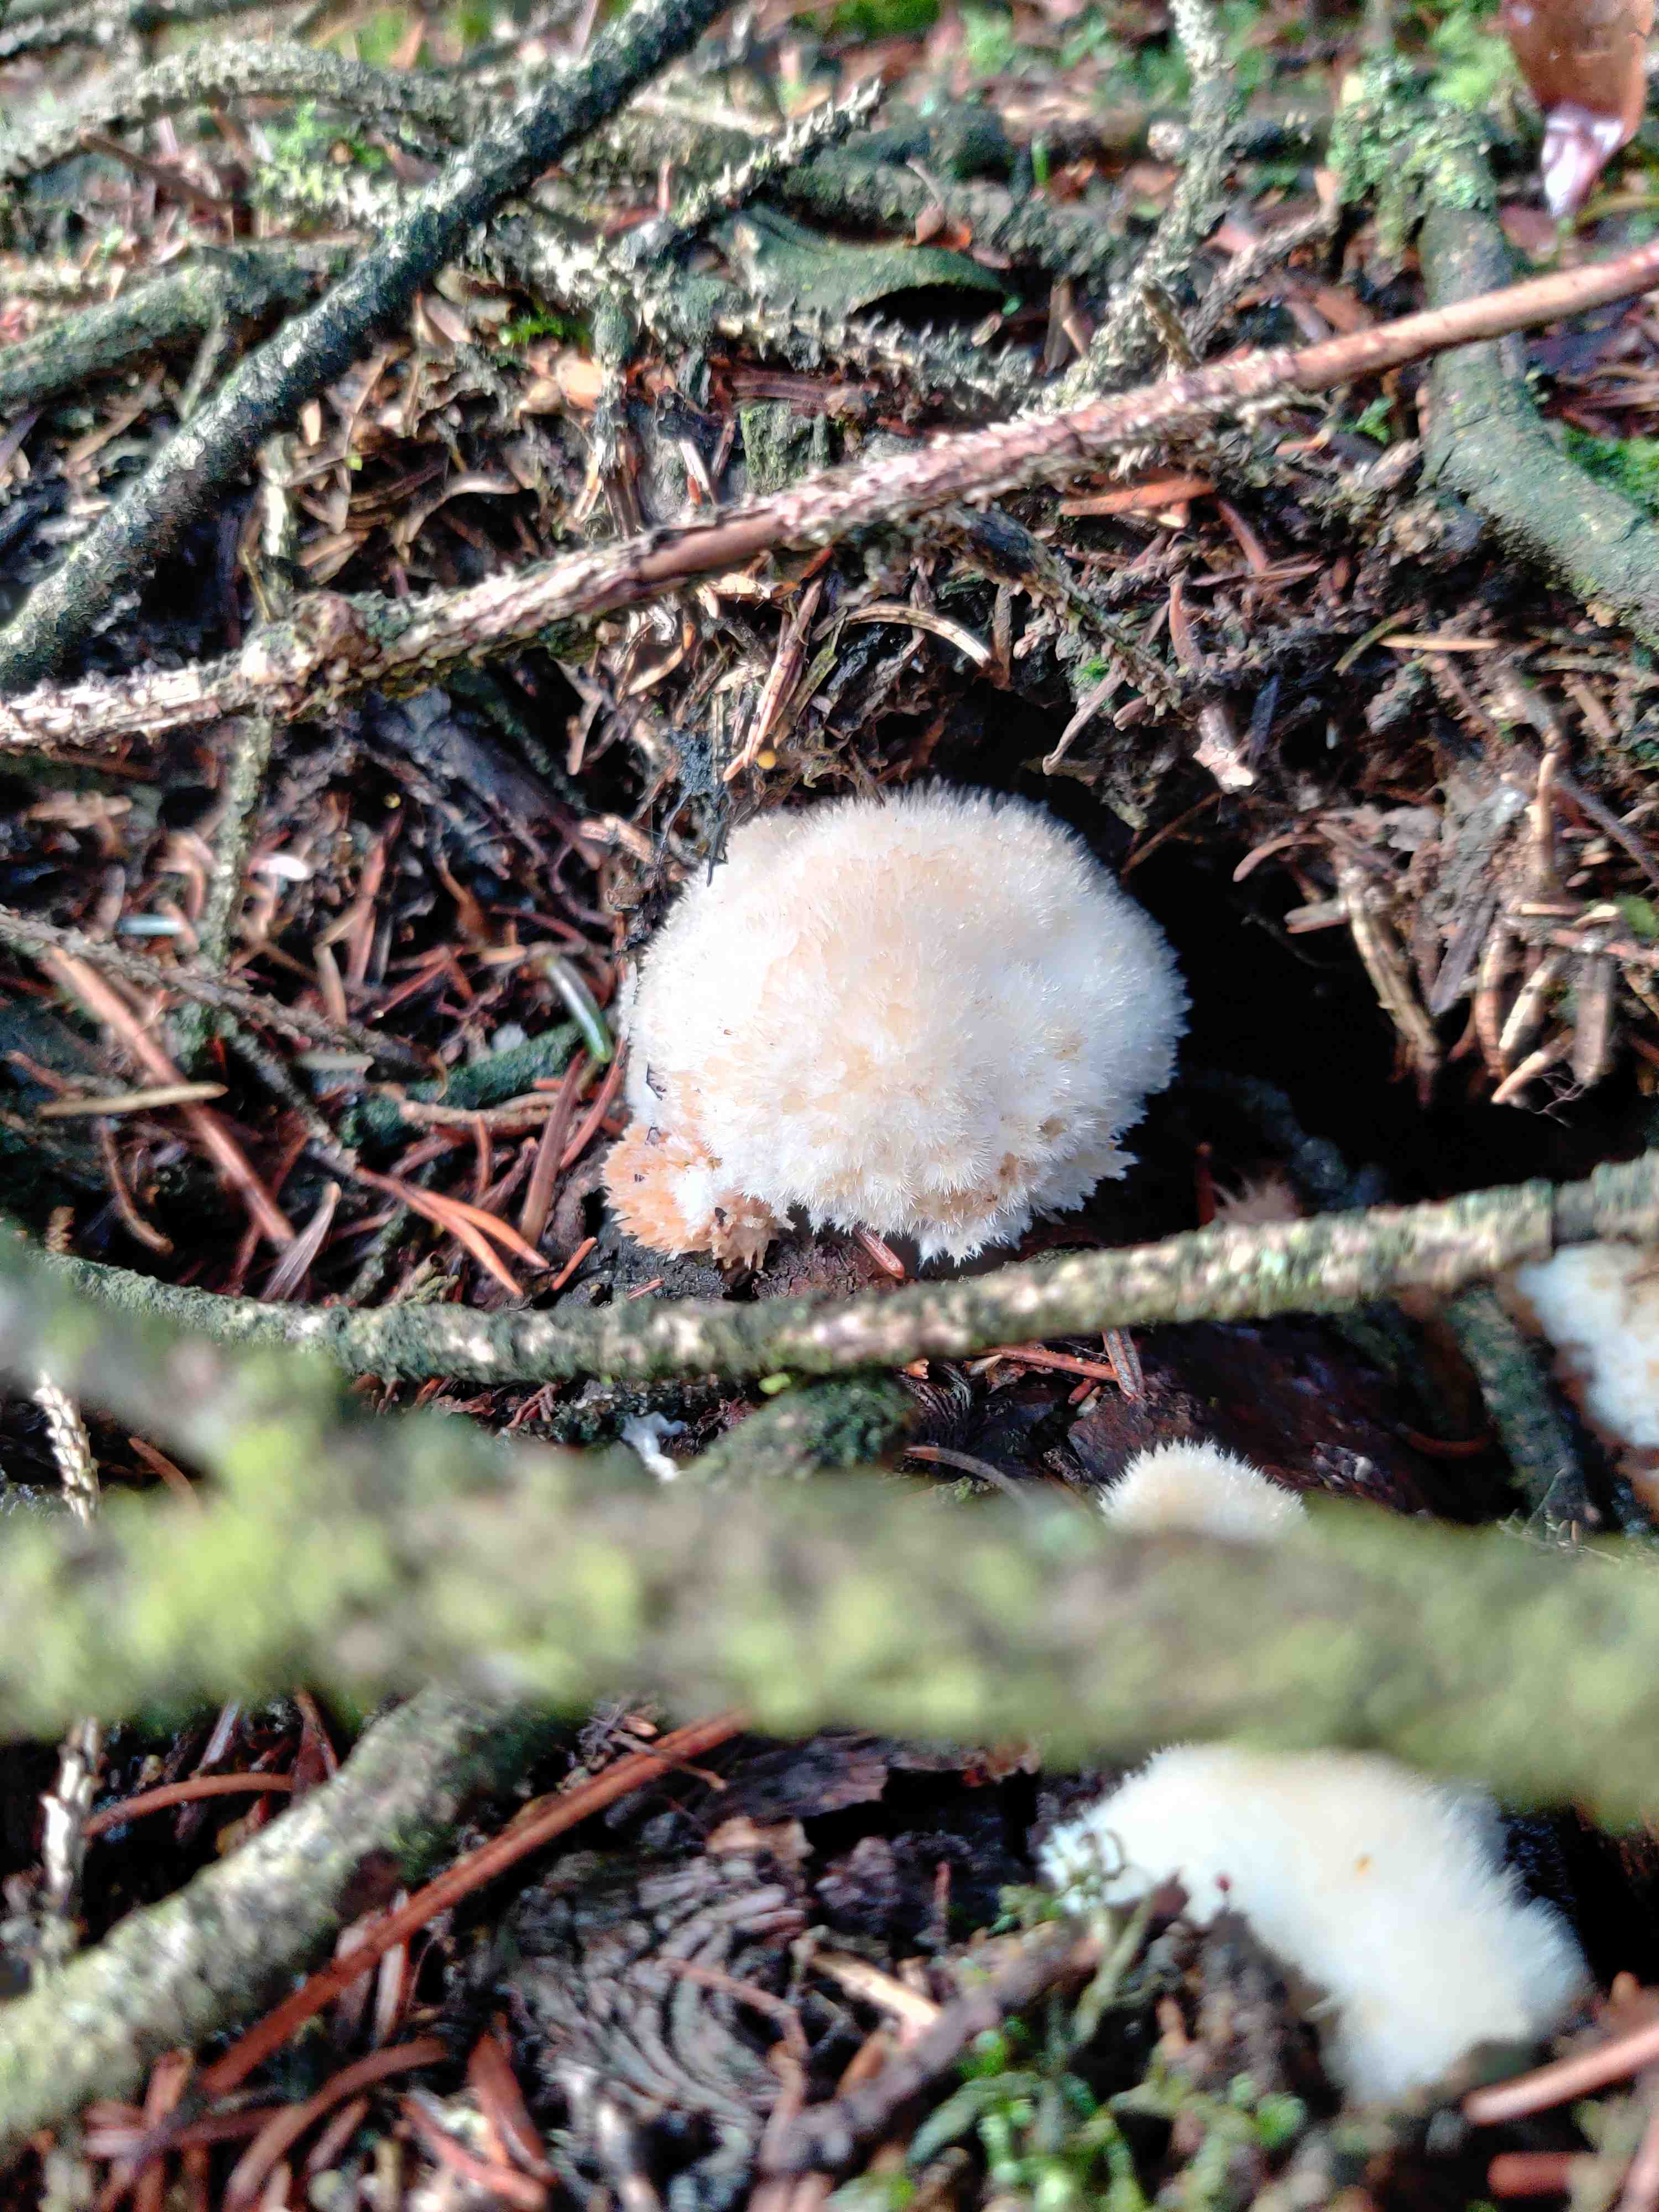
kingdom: Fungi
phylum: Basidiomycota
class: Agaricomycetes
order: Polyporales
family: Dacryobolaceae
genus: Postia
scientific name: Postia ptychogaster
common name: støvende kødporesvamp
